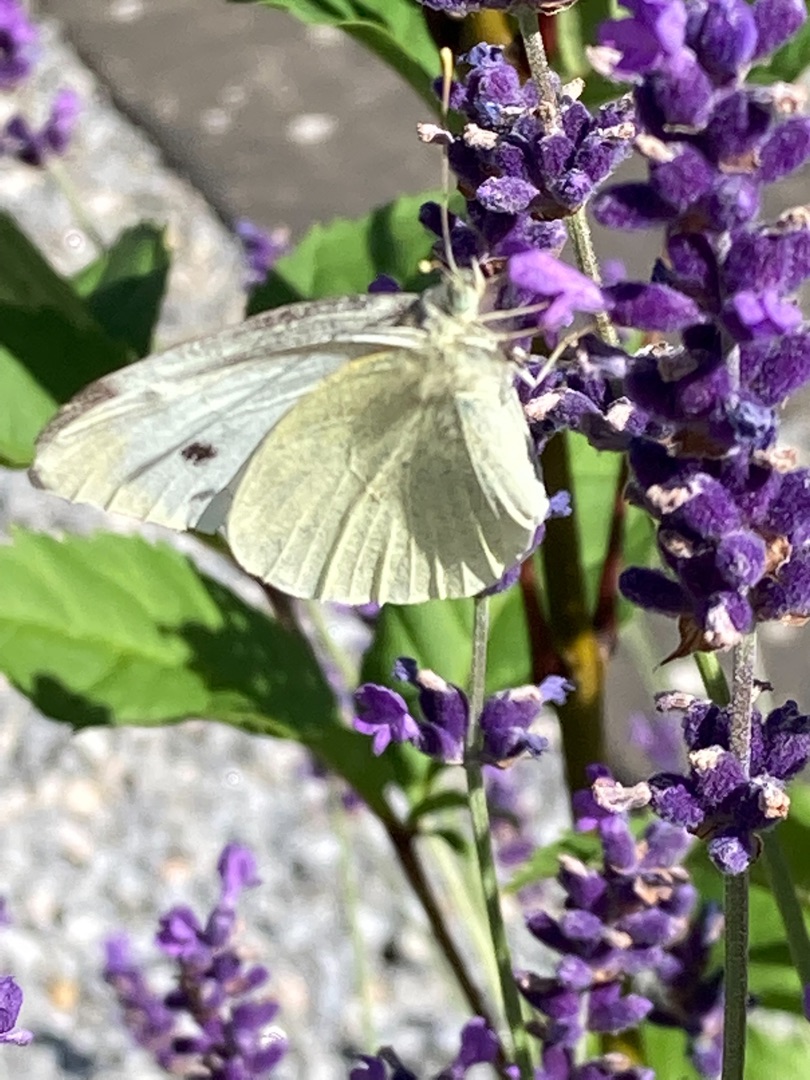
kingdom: Animalia
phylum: Arthropoda
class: Insecta
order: Lepidoptera
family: Pieridae
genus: Pieris
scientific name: Pieris rapae
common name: Lille kålsommerfugl
